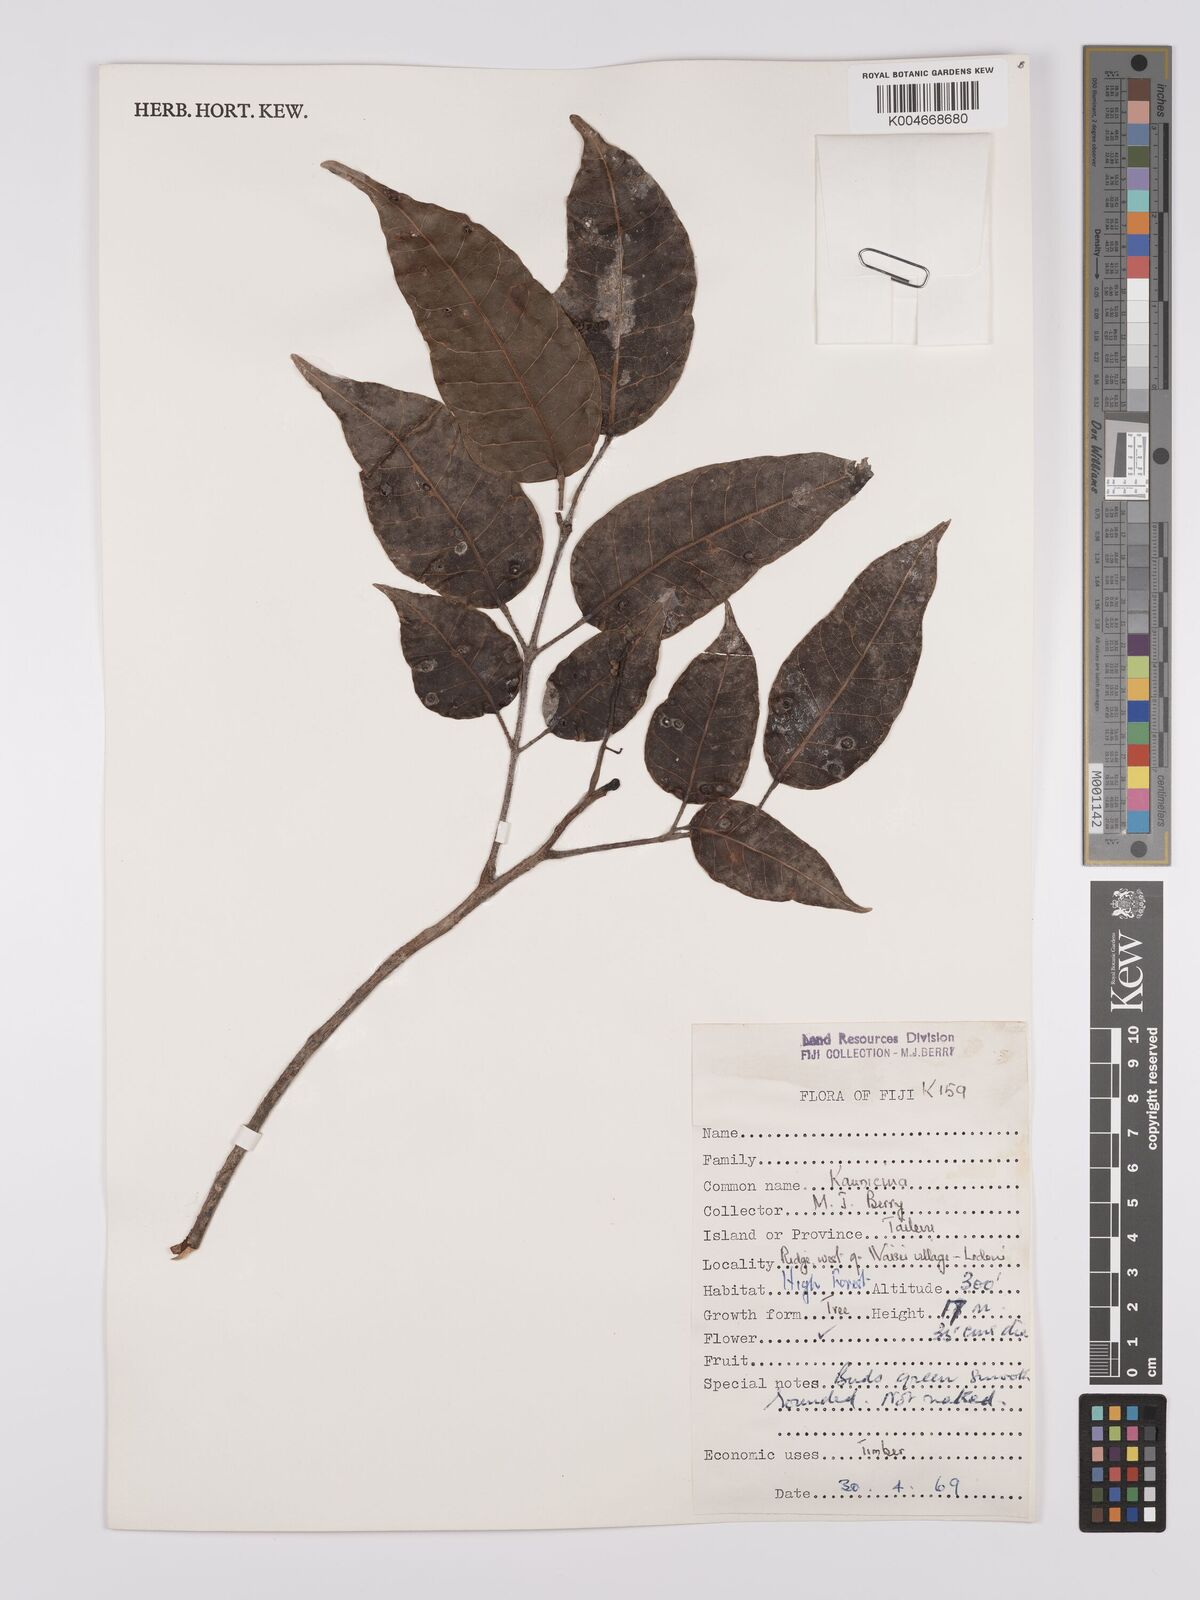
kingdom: Plantae
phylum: Tracheophyta
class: Magnoliopsida
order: Sapindales
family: Burseraceae
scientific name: Burseraceae
